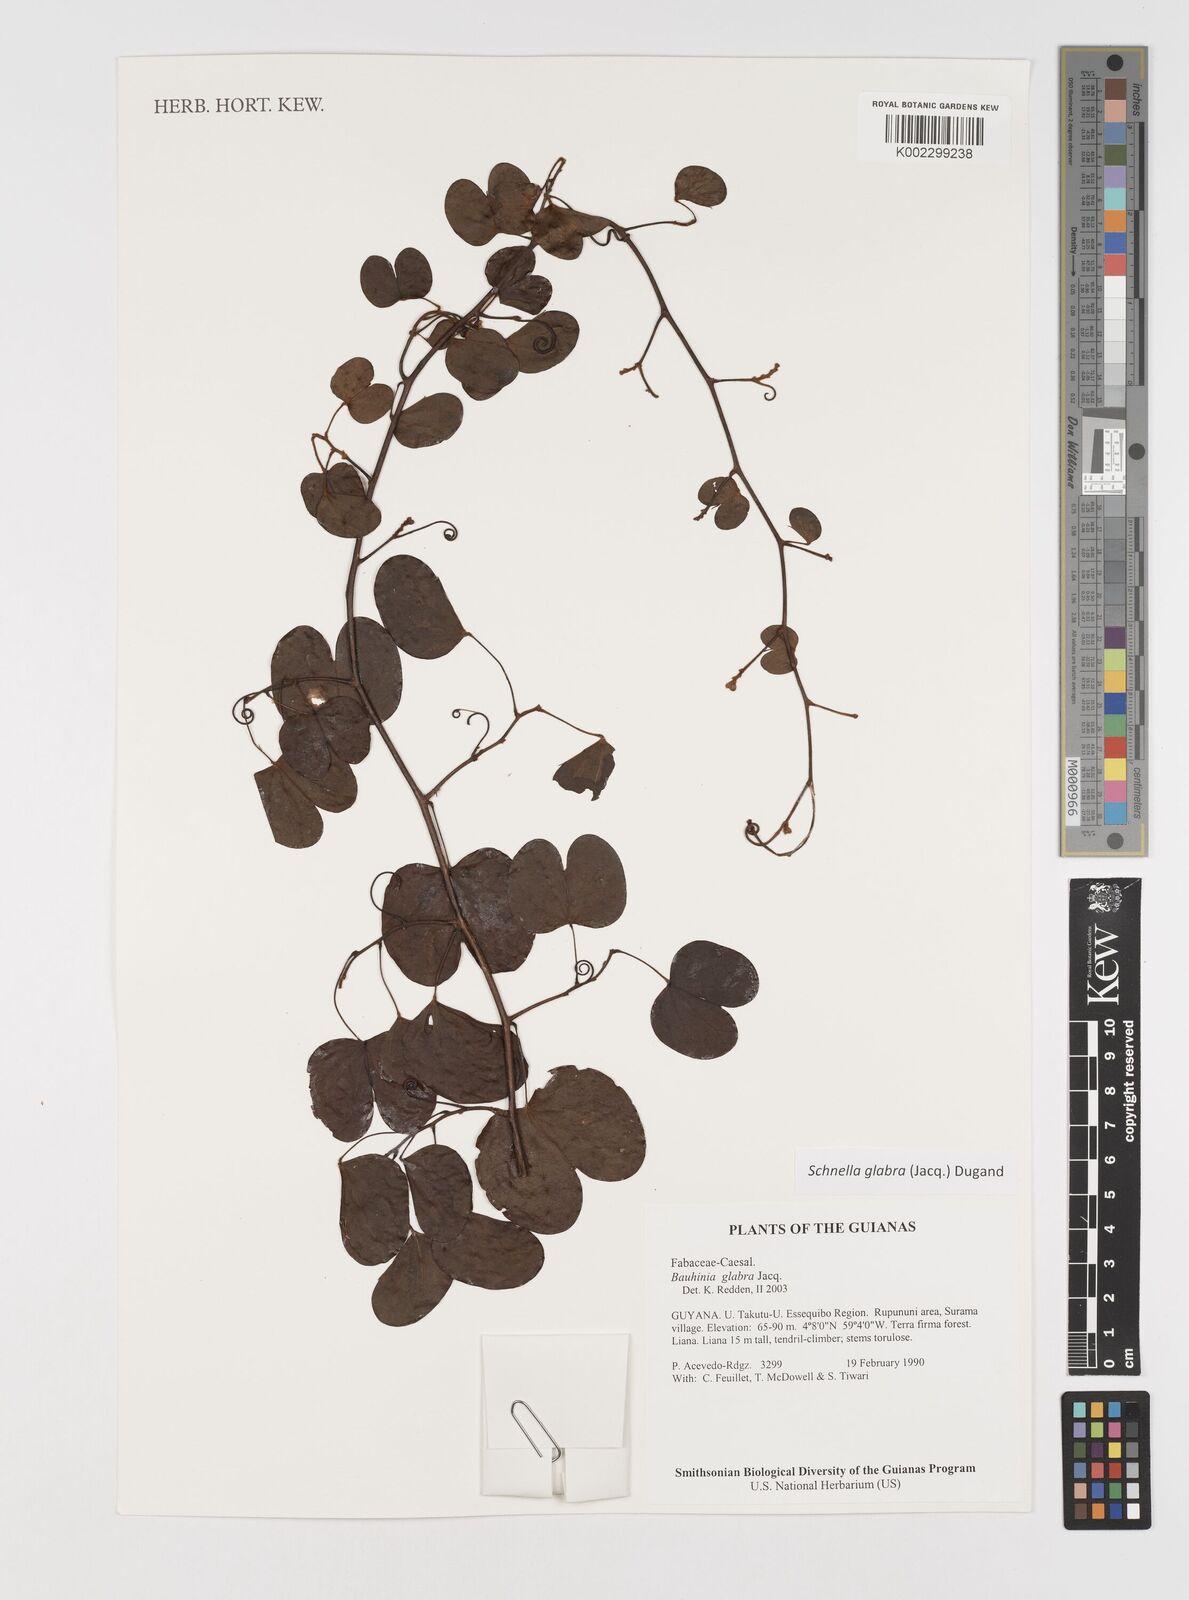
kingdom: Plantae
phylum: Tracheophyta
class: Magnoliopsida
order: Fabales
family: Fabaceae
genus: Schnella
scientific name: Schnella glabra
